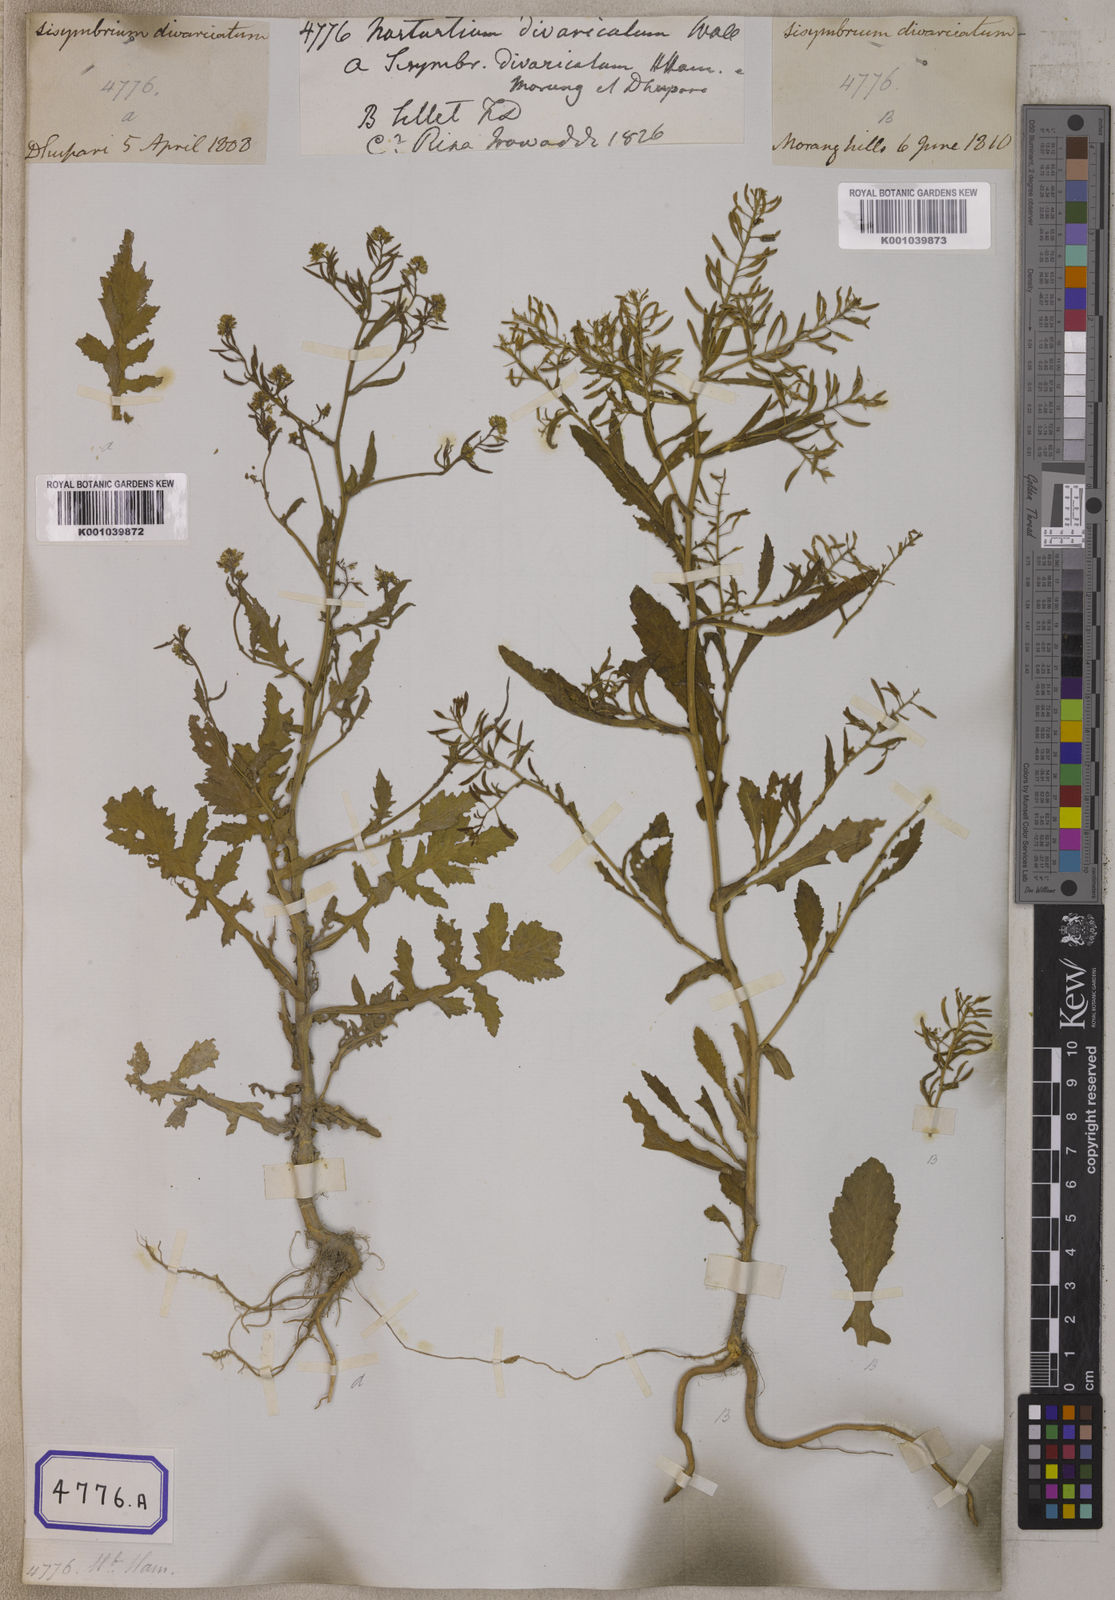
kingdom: Plantae
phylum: Tracheophyta
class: Magnoliopsida
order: Brassicales
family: Brassicaceae
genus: Rorippa
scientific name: Rorippa indica
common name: Variableleaf yellowcress
